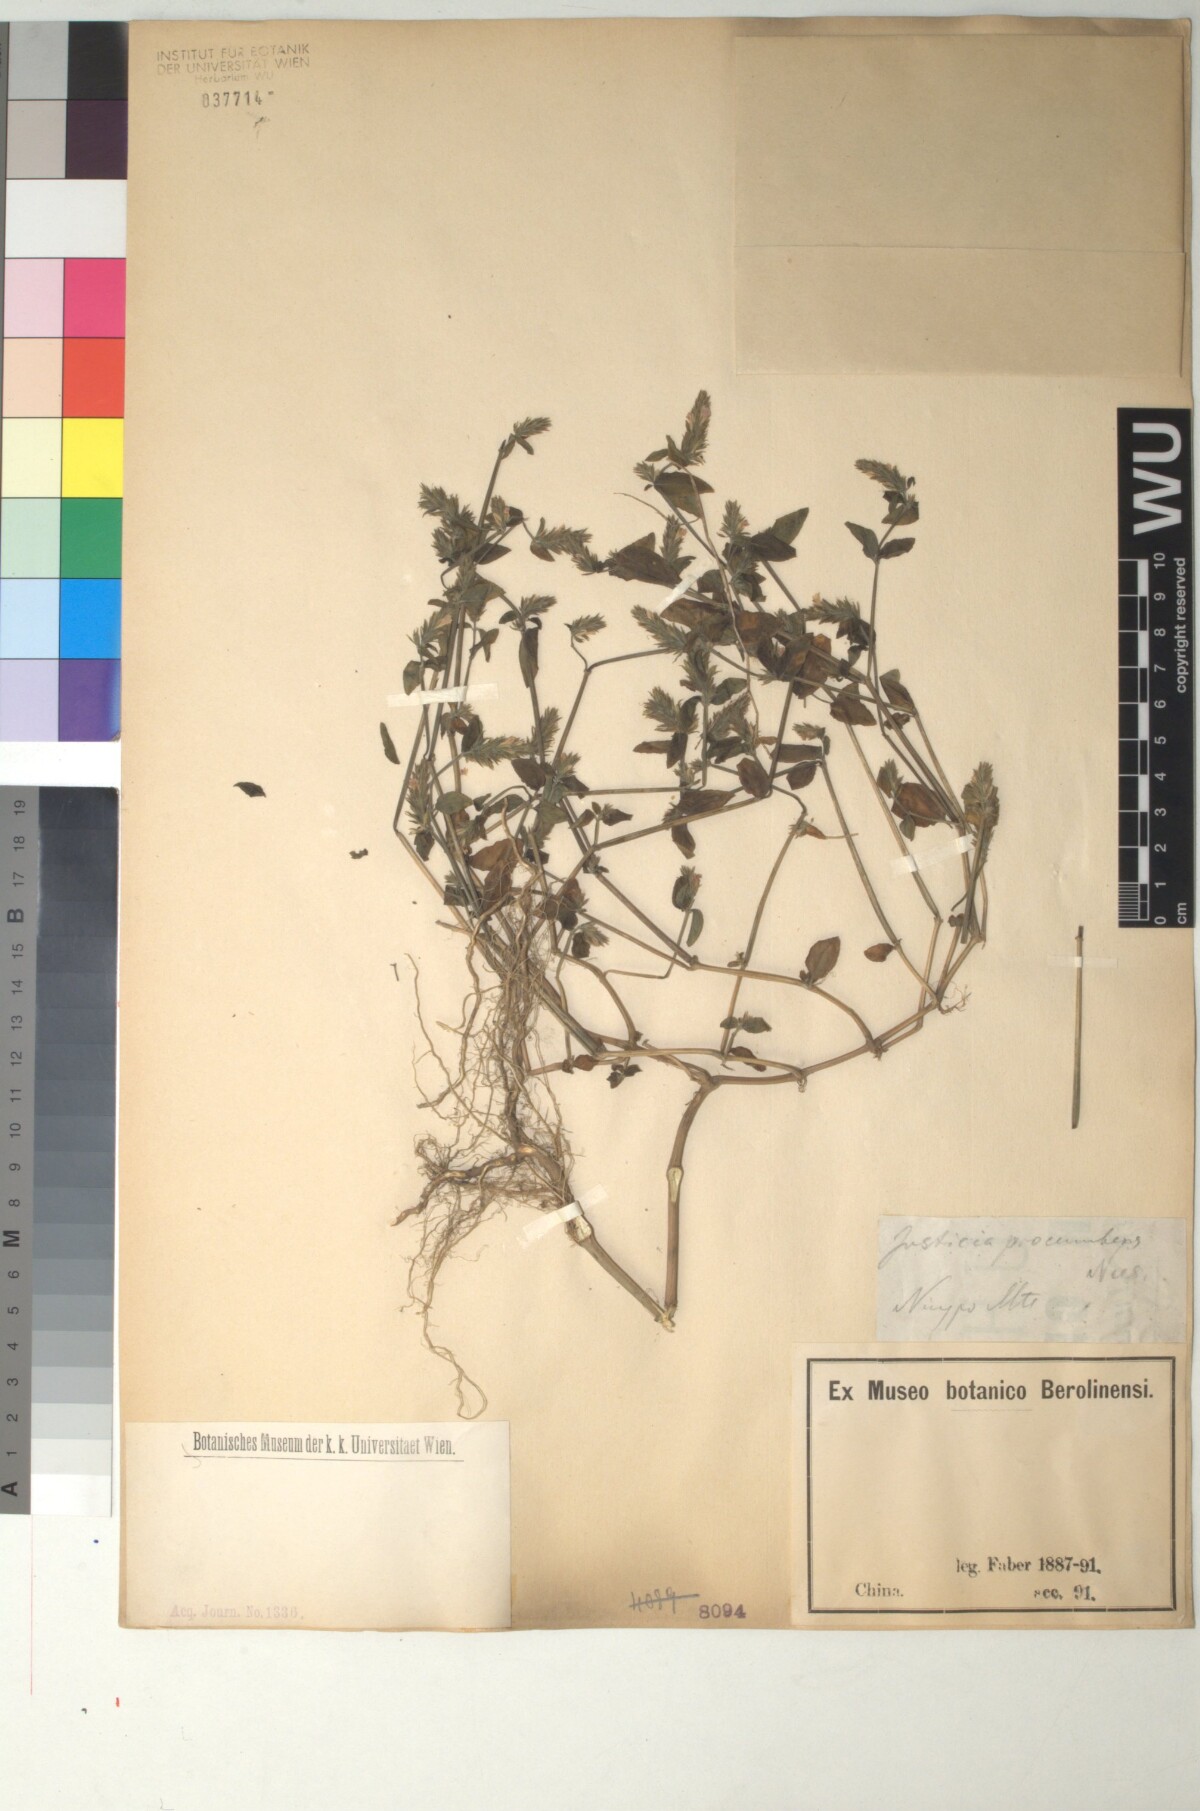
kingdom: Plantae
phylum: Tracheophyta
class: Magnoliopsida
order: Lamiales
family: Acanthaceae
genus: Rostellularia
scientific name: Rostellularia procumbens
